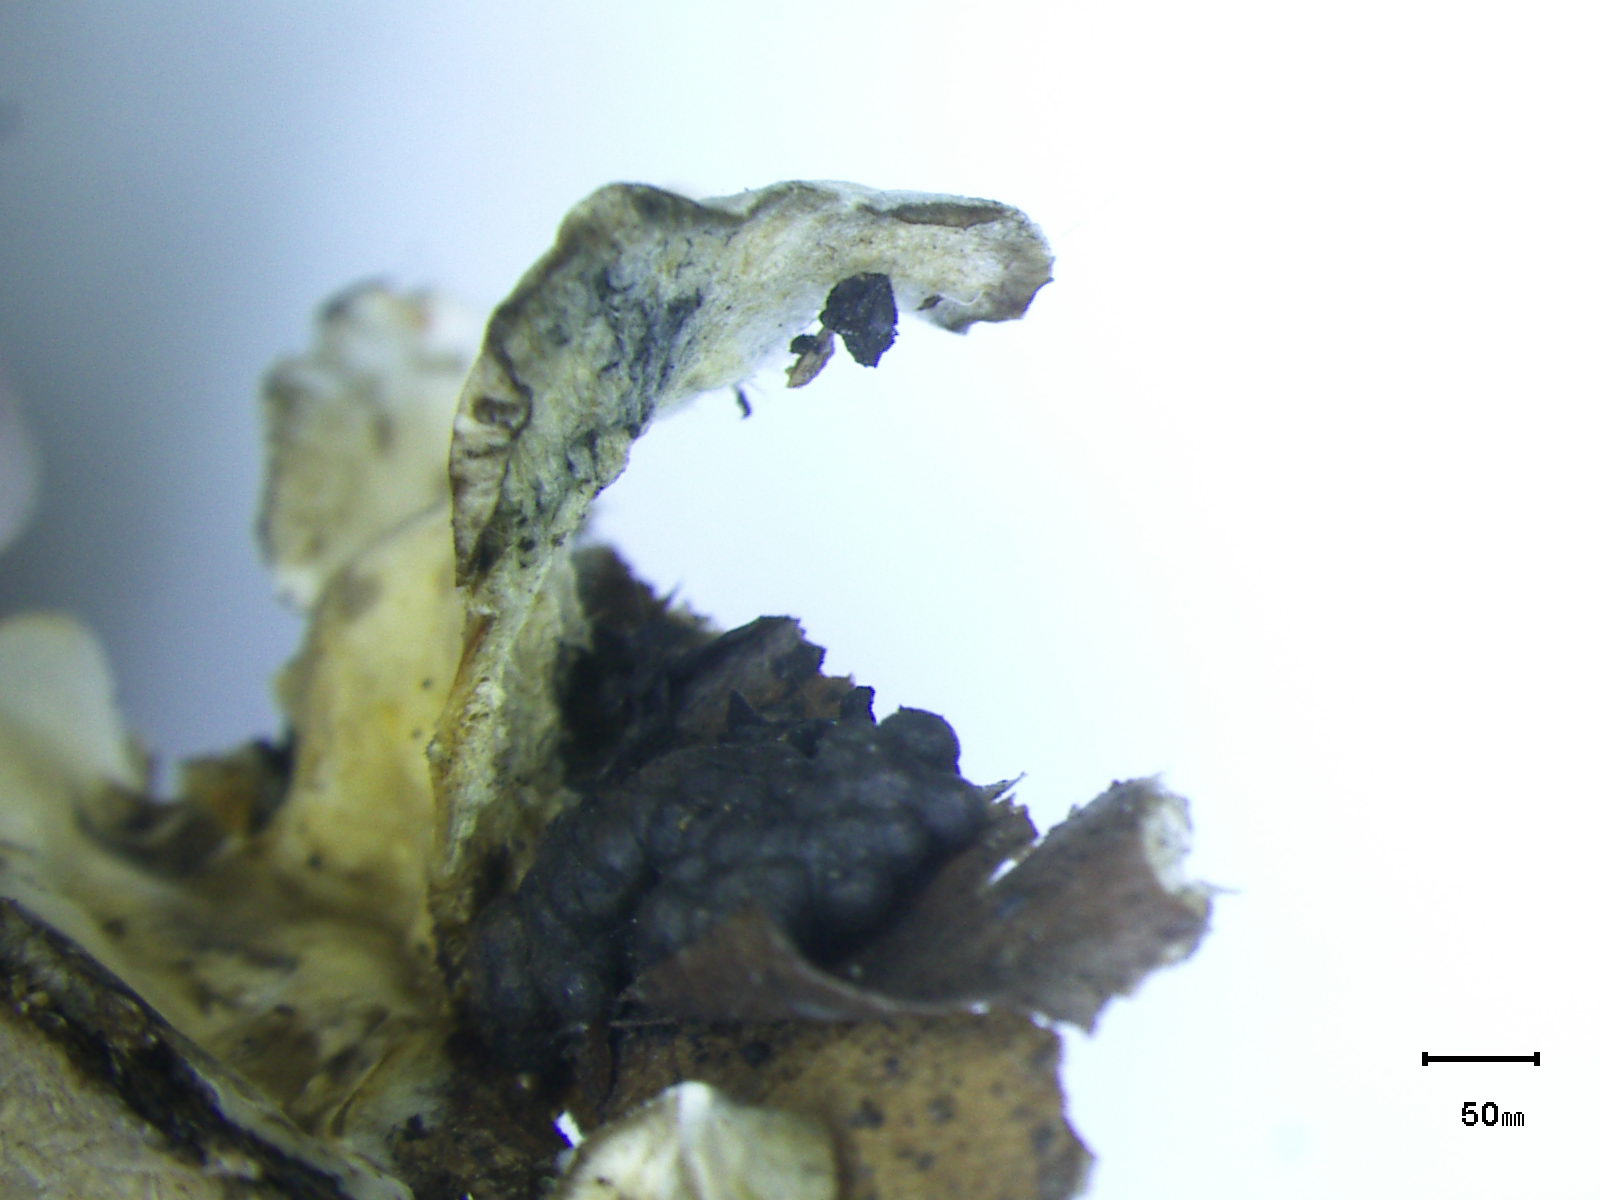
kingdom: Fungi
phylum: Basidiomycota
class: Agaricomycetes
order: Amylocorticiales
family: Amylocorticiaceae
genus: Plicaturopsis
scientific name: Plicaturopsis crispa
